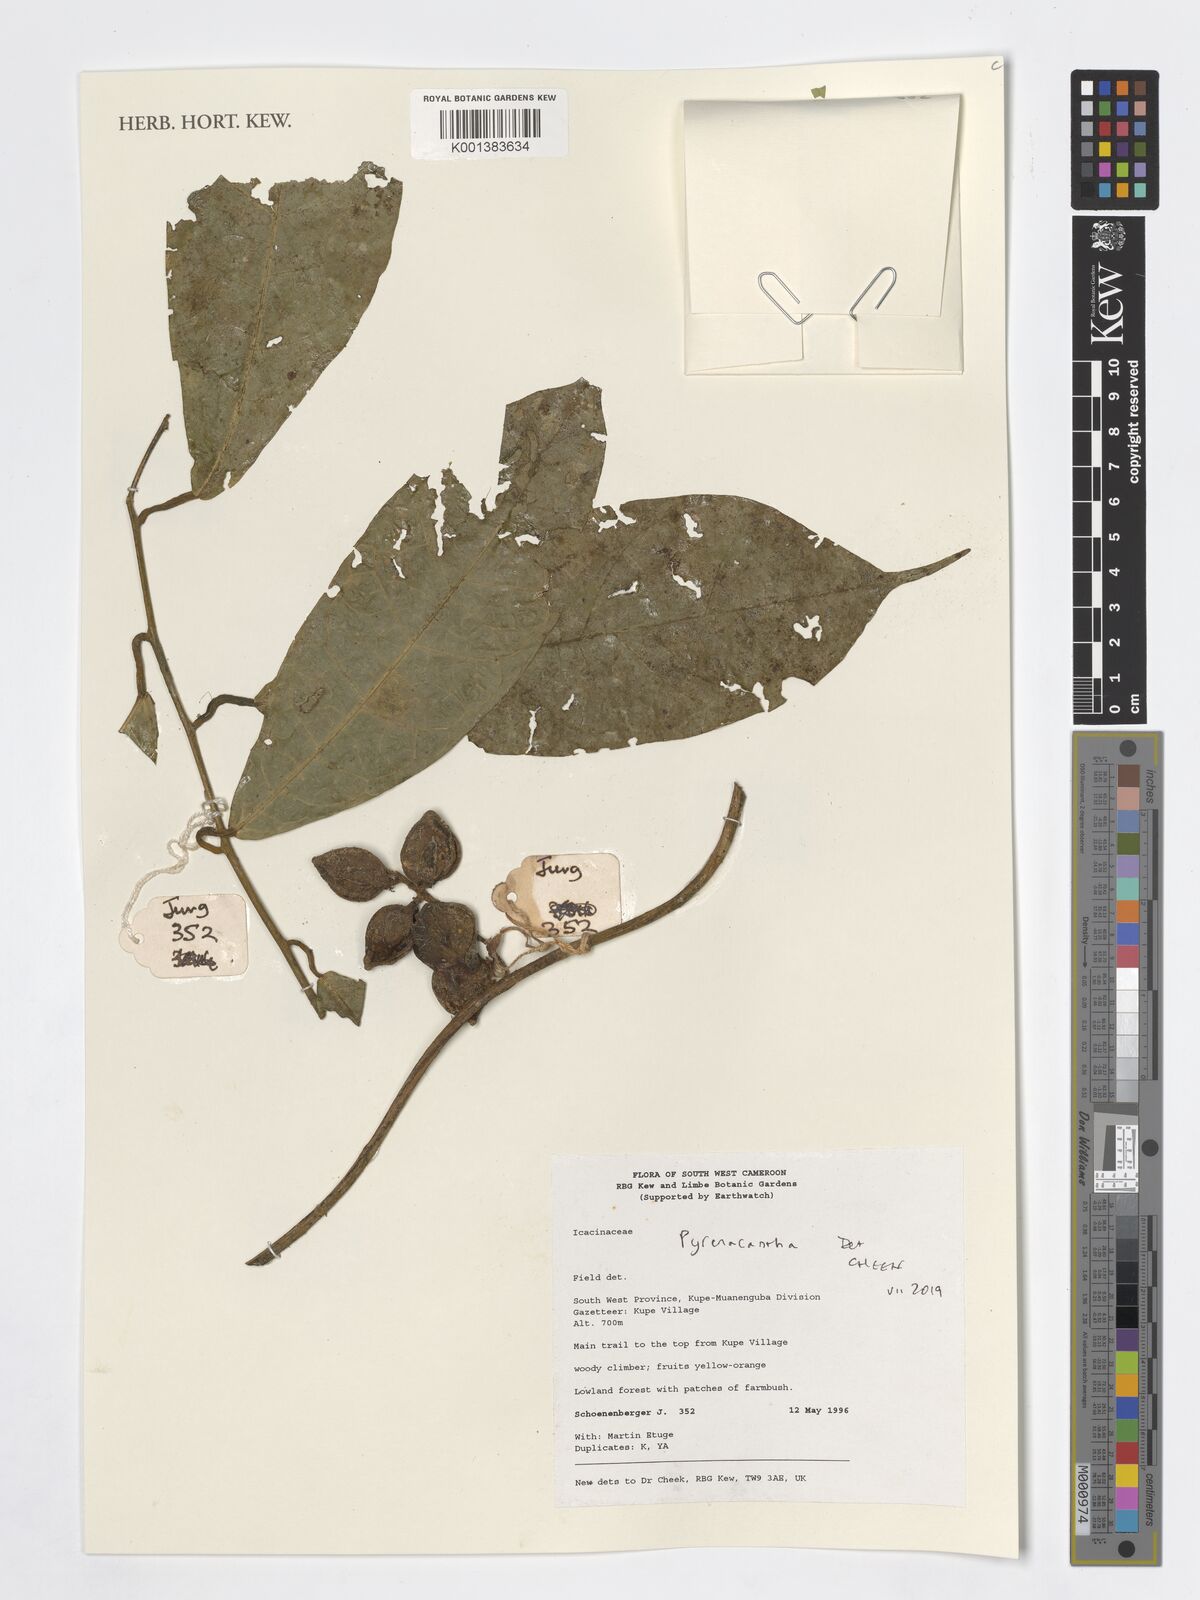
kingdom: Plantae
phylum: Tracheophyta
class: Magnoliopsida
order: Icacinales
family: Icacinaceae
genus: Pyrenacantha
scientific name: Pyrenacantha
